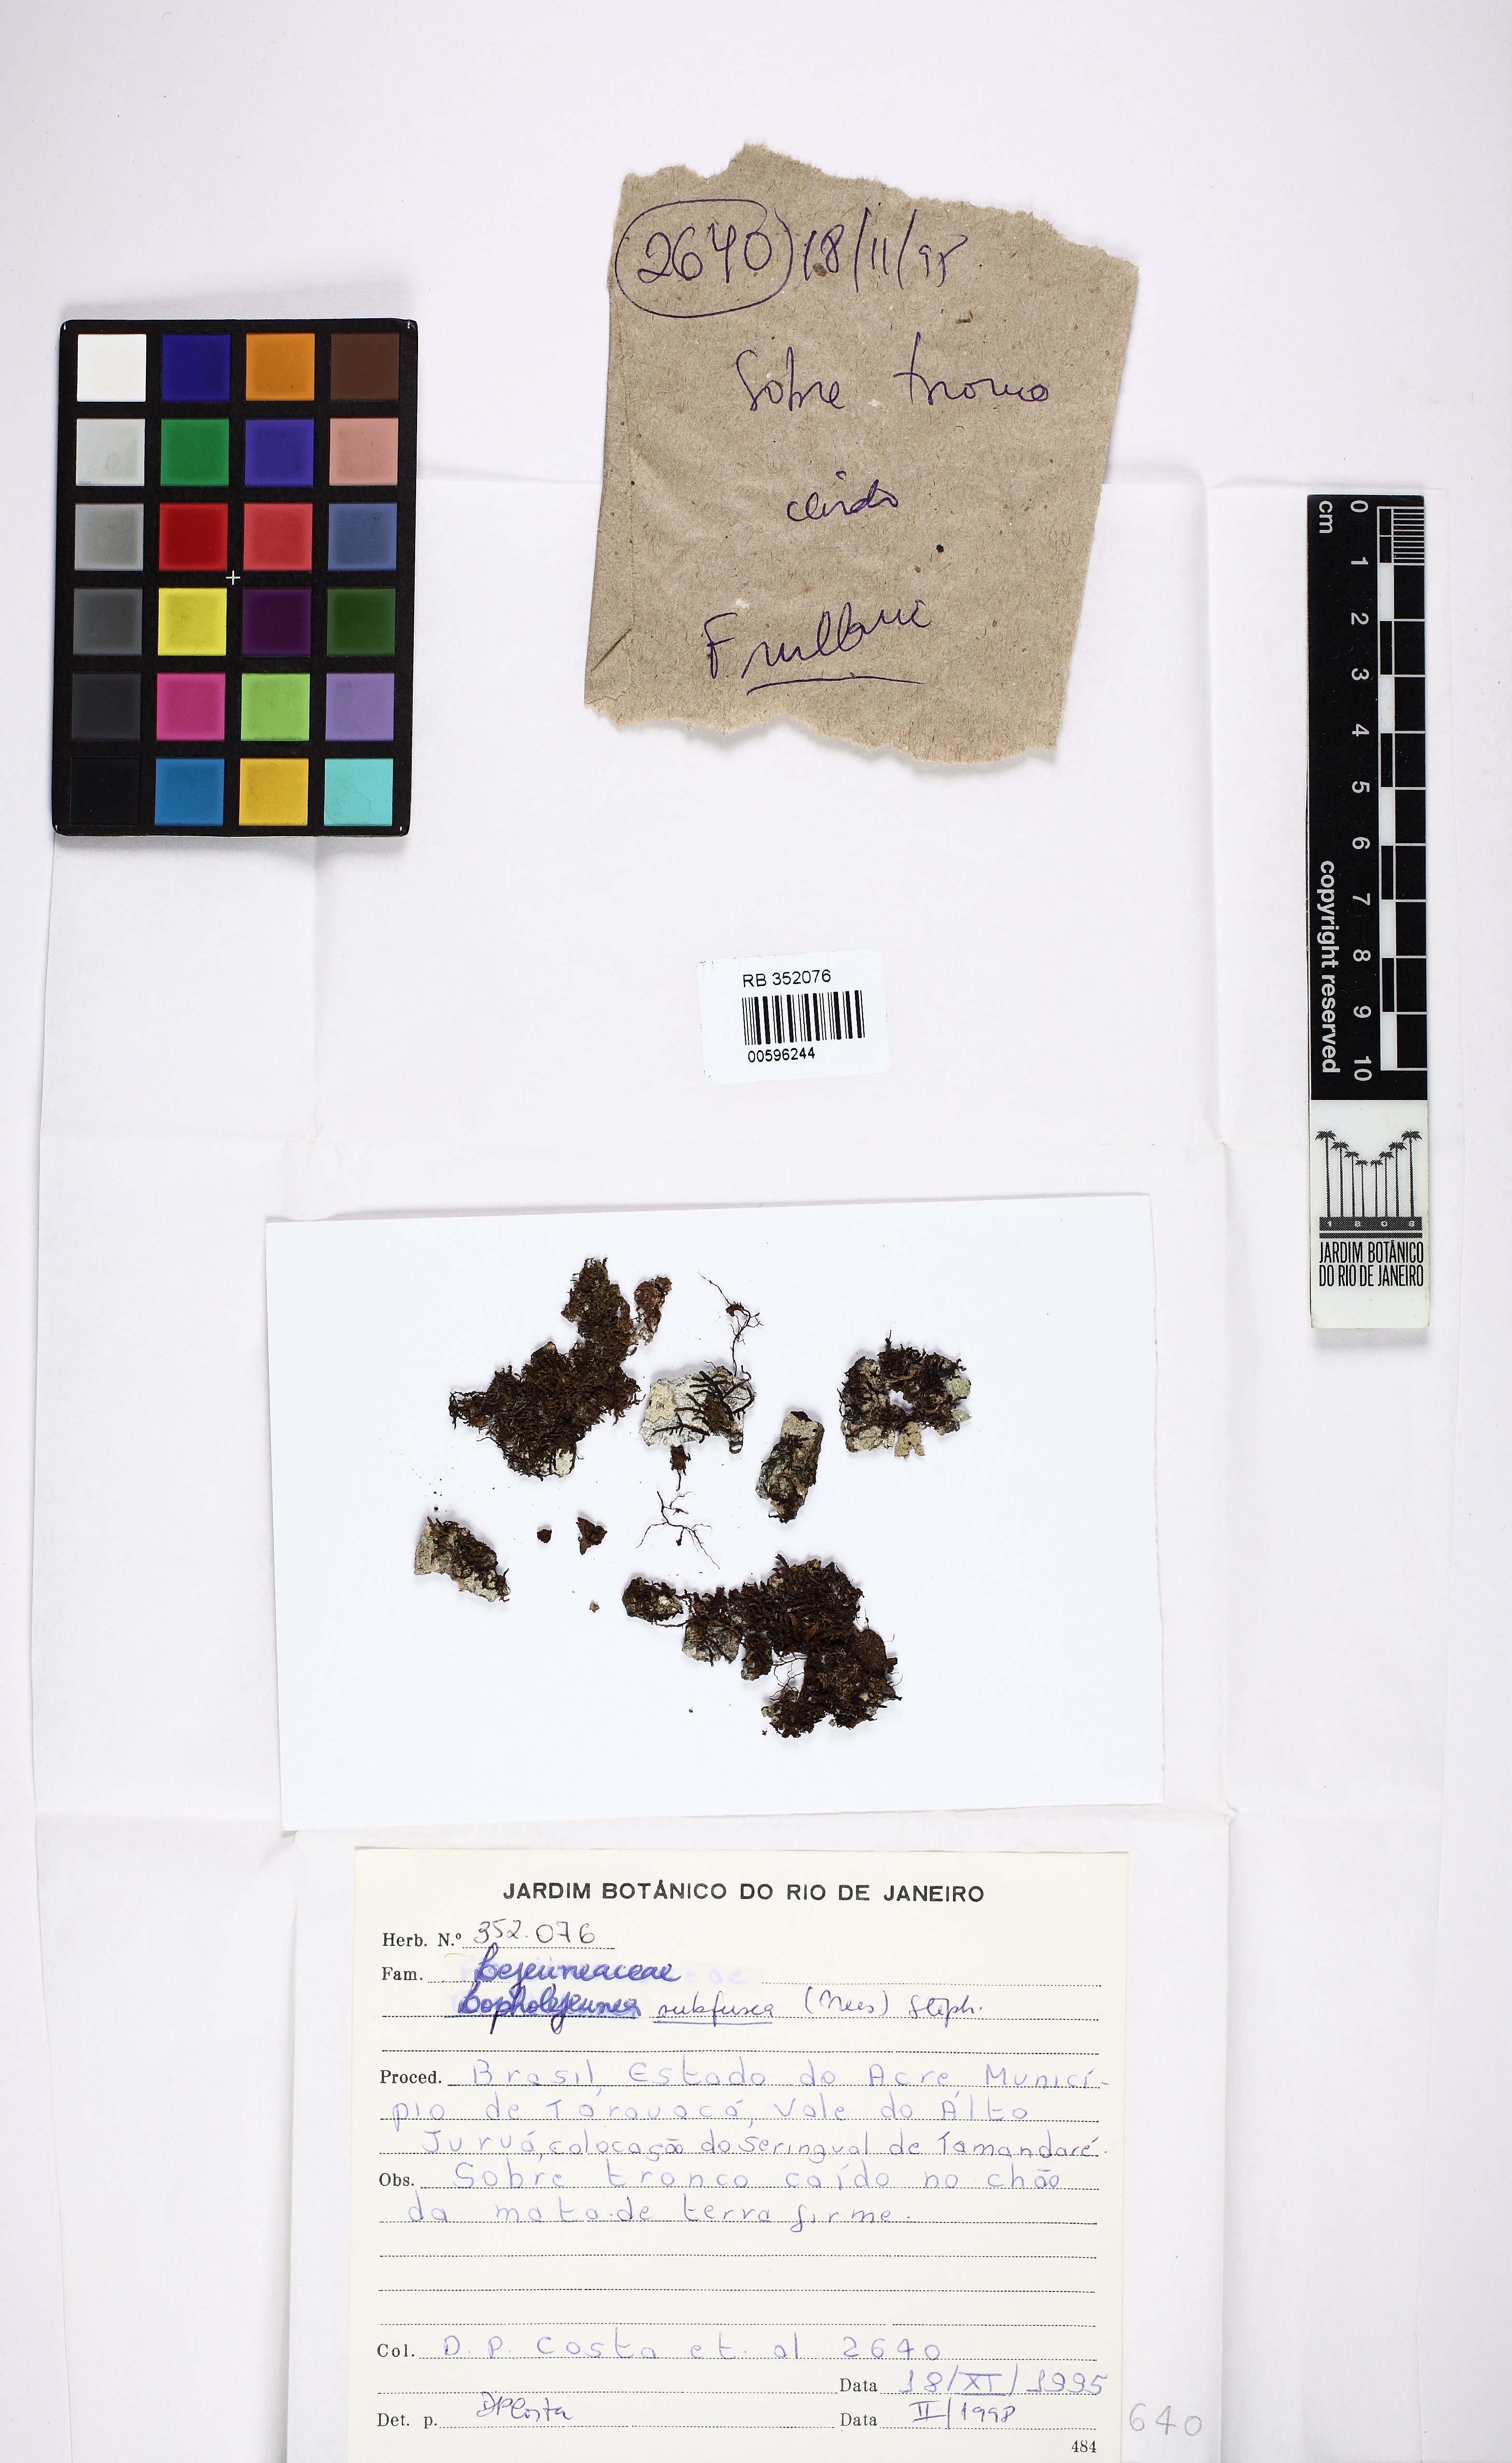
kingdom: Plantae
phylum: Marchantiophyta
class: Jungermanniopsida
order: Porellales
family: Lejeuneaceae
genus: Lopholejeunea
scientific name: Lopholejeunea subfusca
